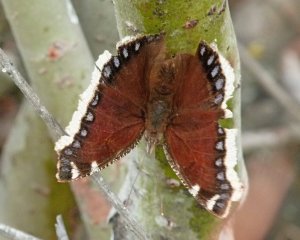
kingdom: Animalia
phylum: Arthropoda
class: Insecta
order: Lepidoptera
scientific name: Lepidoptera
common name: Butterflies
